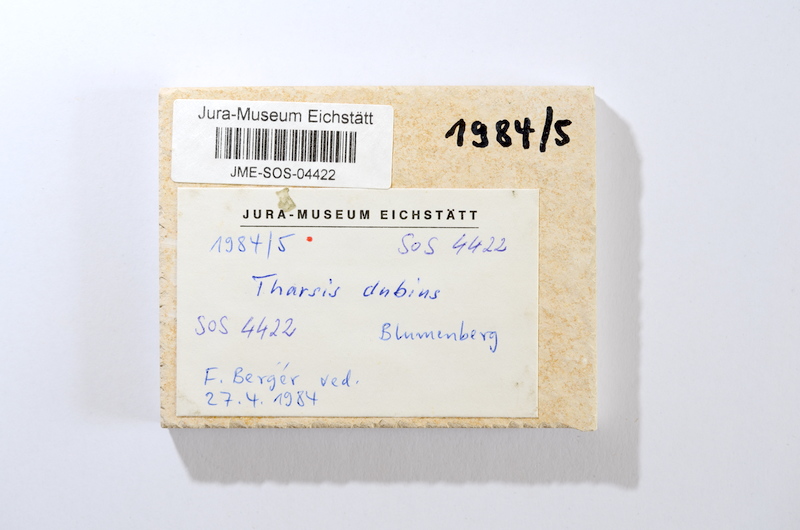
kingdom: Animalia
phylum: Chordata
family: Ascalaboidae
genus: Tharsis
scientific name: Tharsis dubius
